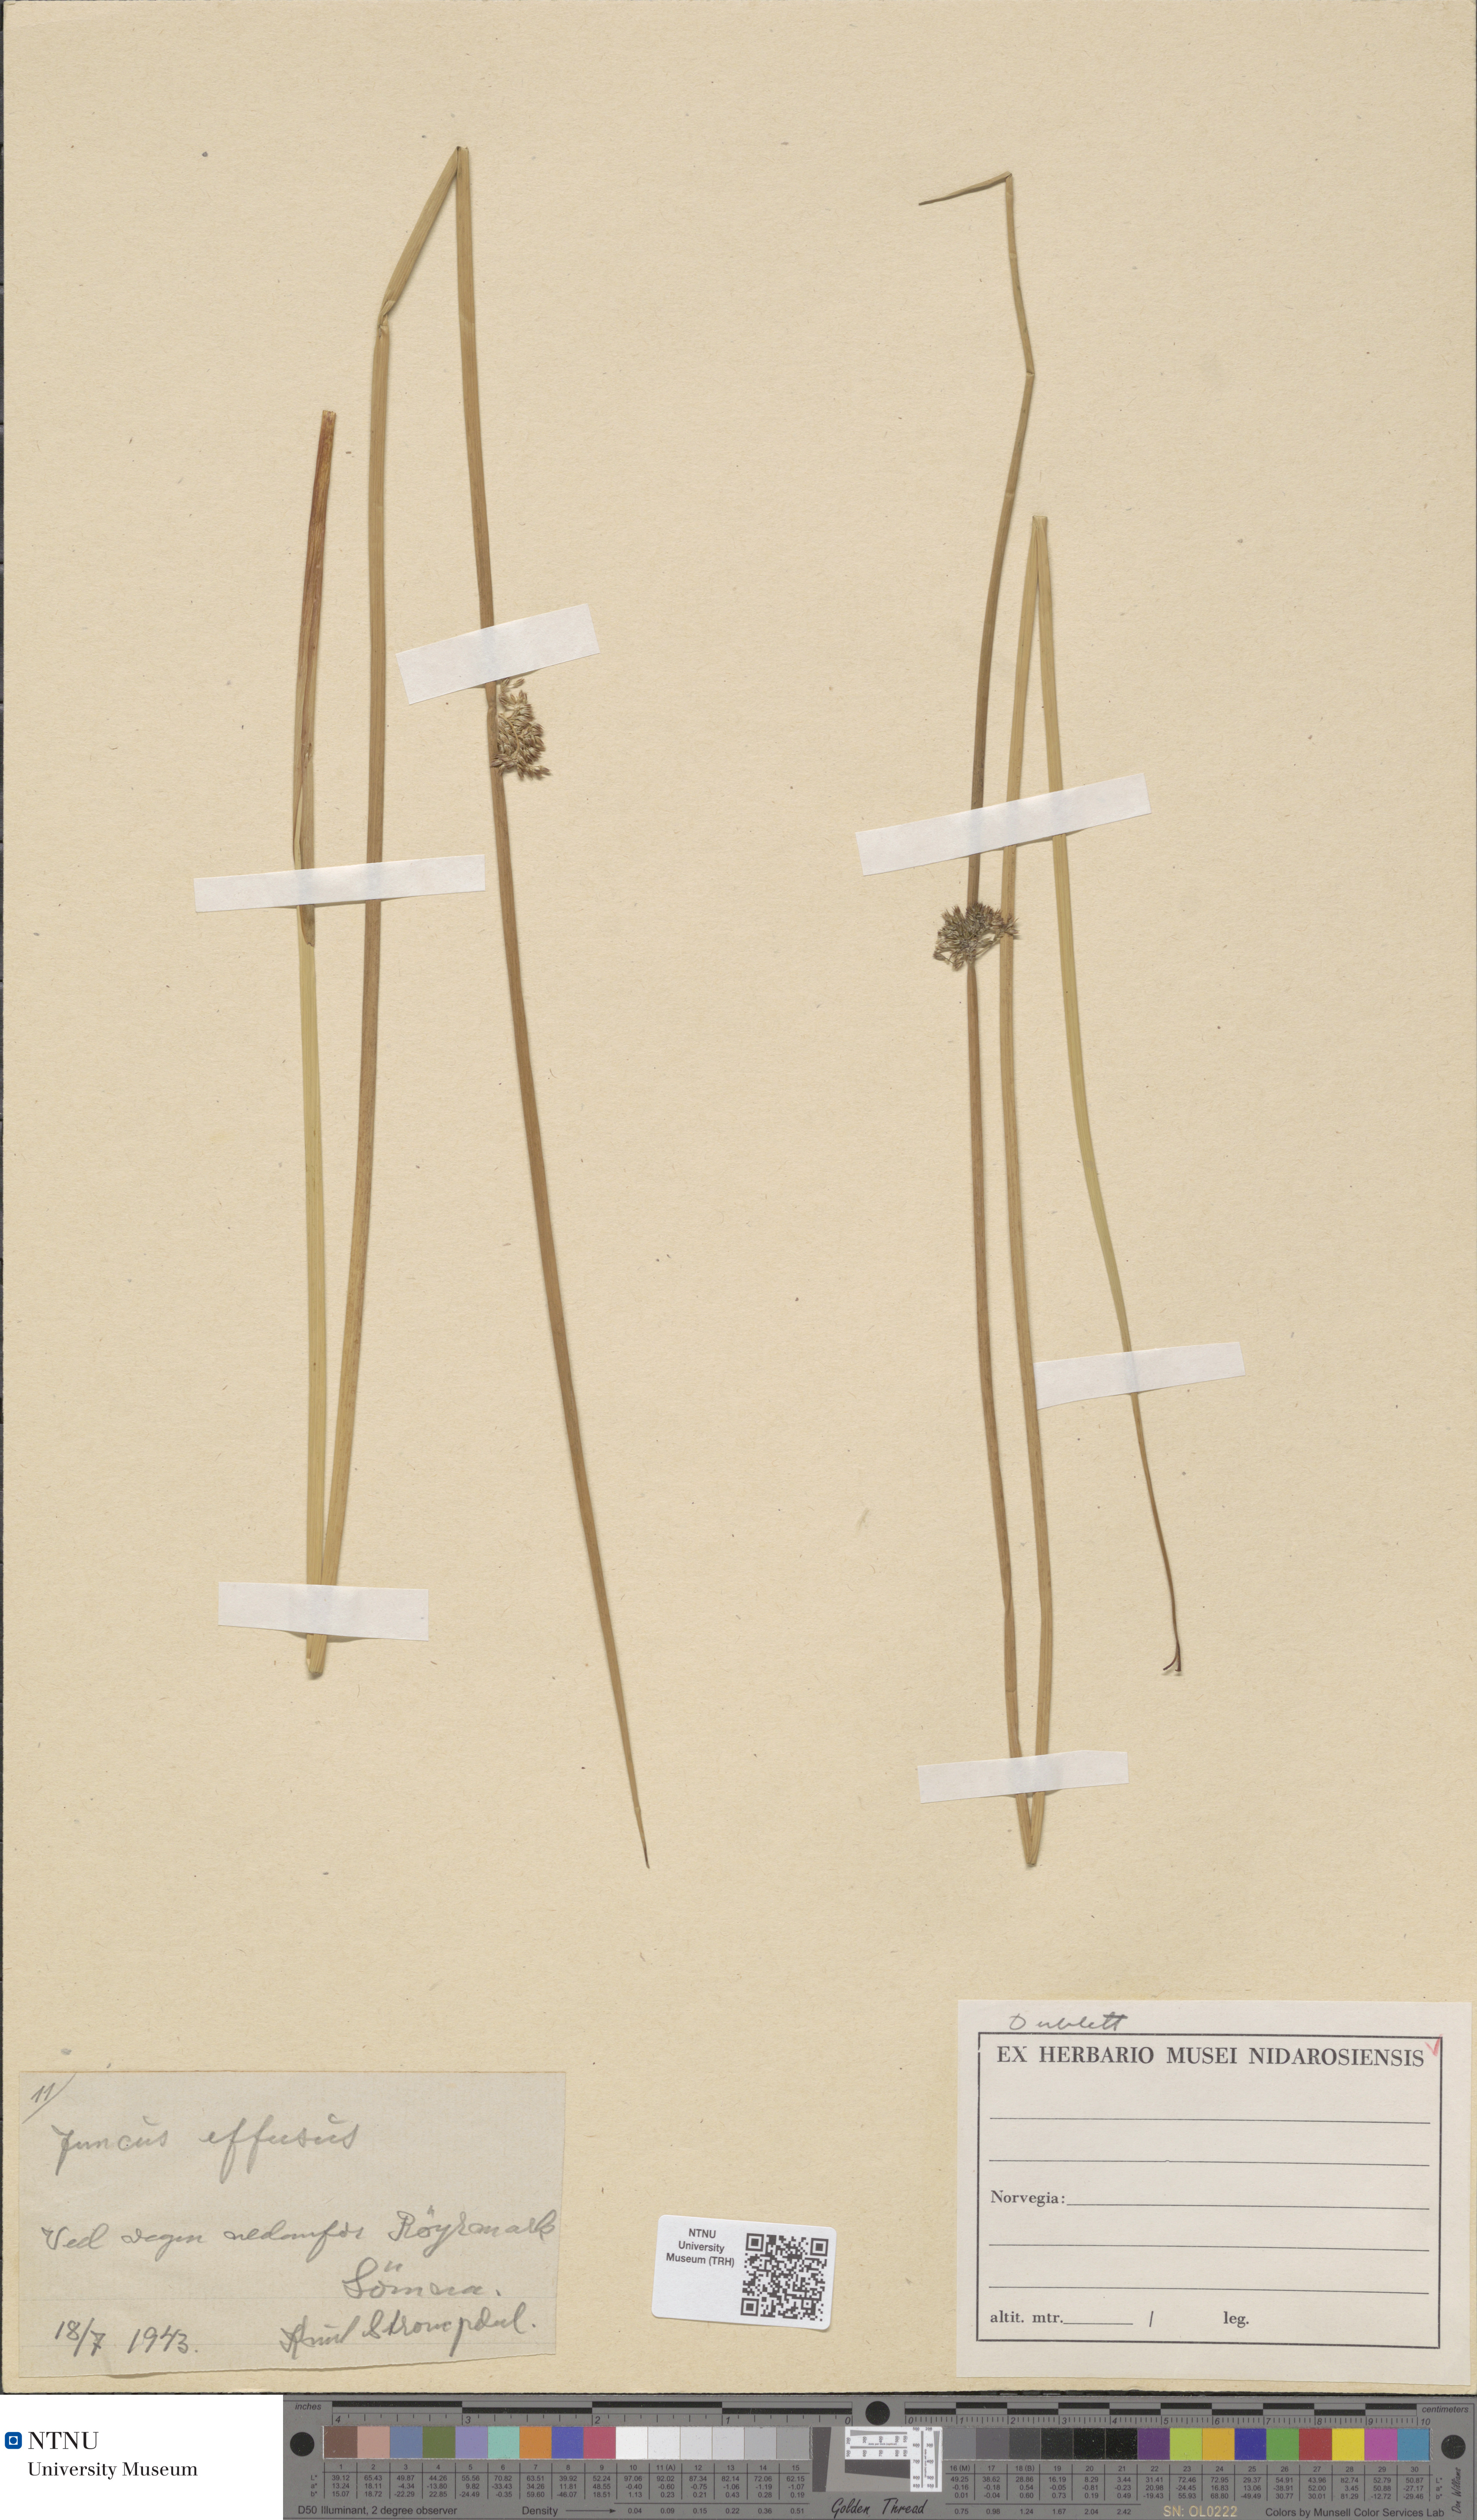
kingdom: Plantae
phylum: Tracheophyta
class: Liliopsida
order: Poales
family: Juncaceae
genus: Juncus
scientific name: Juncus effusus
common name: Soft rush
